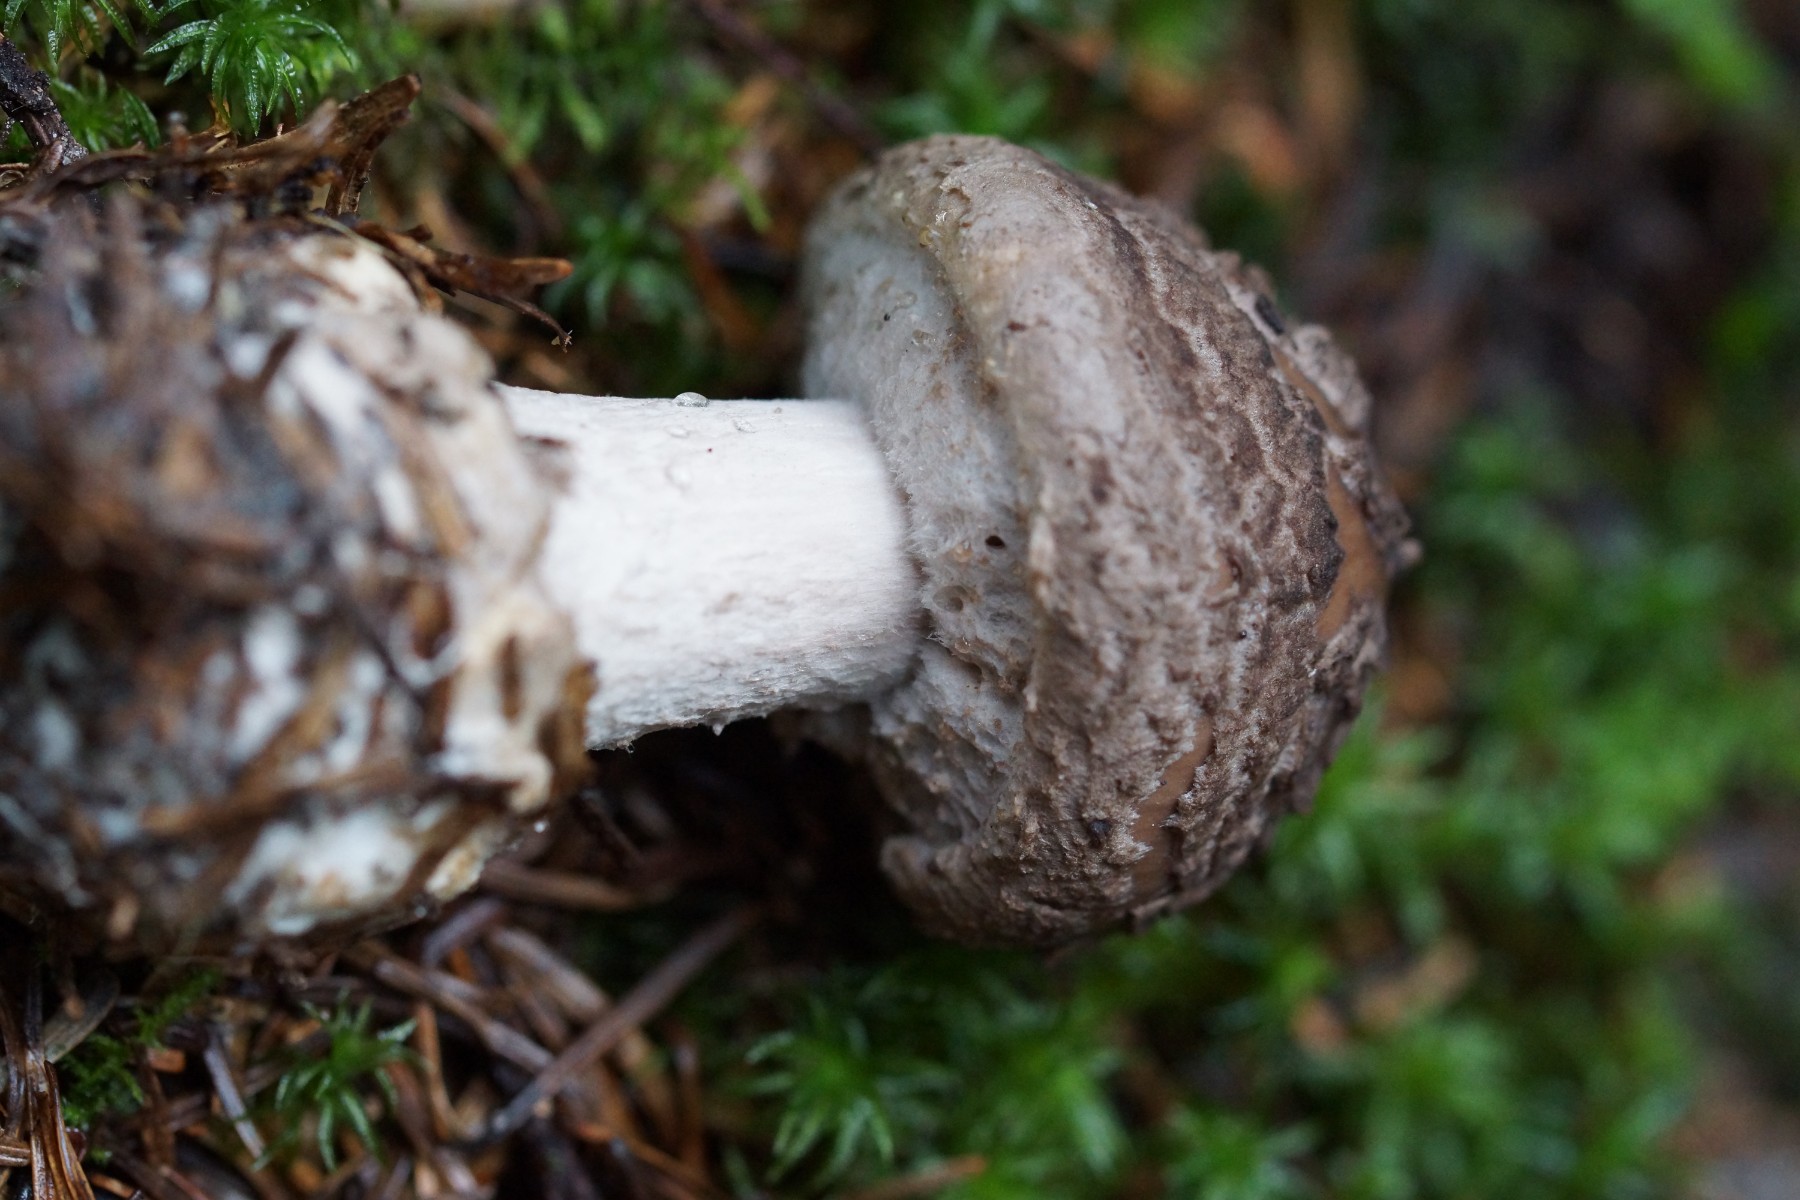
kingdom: Fungi
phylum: Basidiomycota
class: Agaricomycetes
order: Agaricales
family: Amanitaceae
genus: Amanita
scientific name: Amanita
